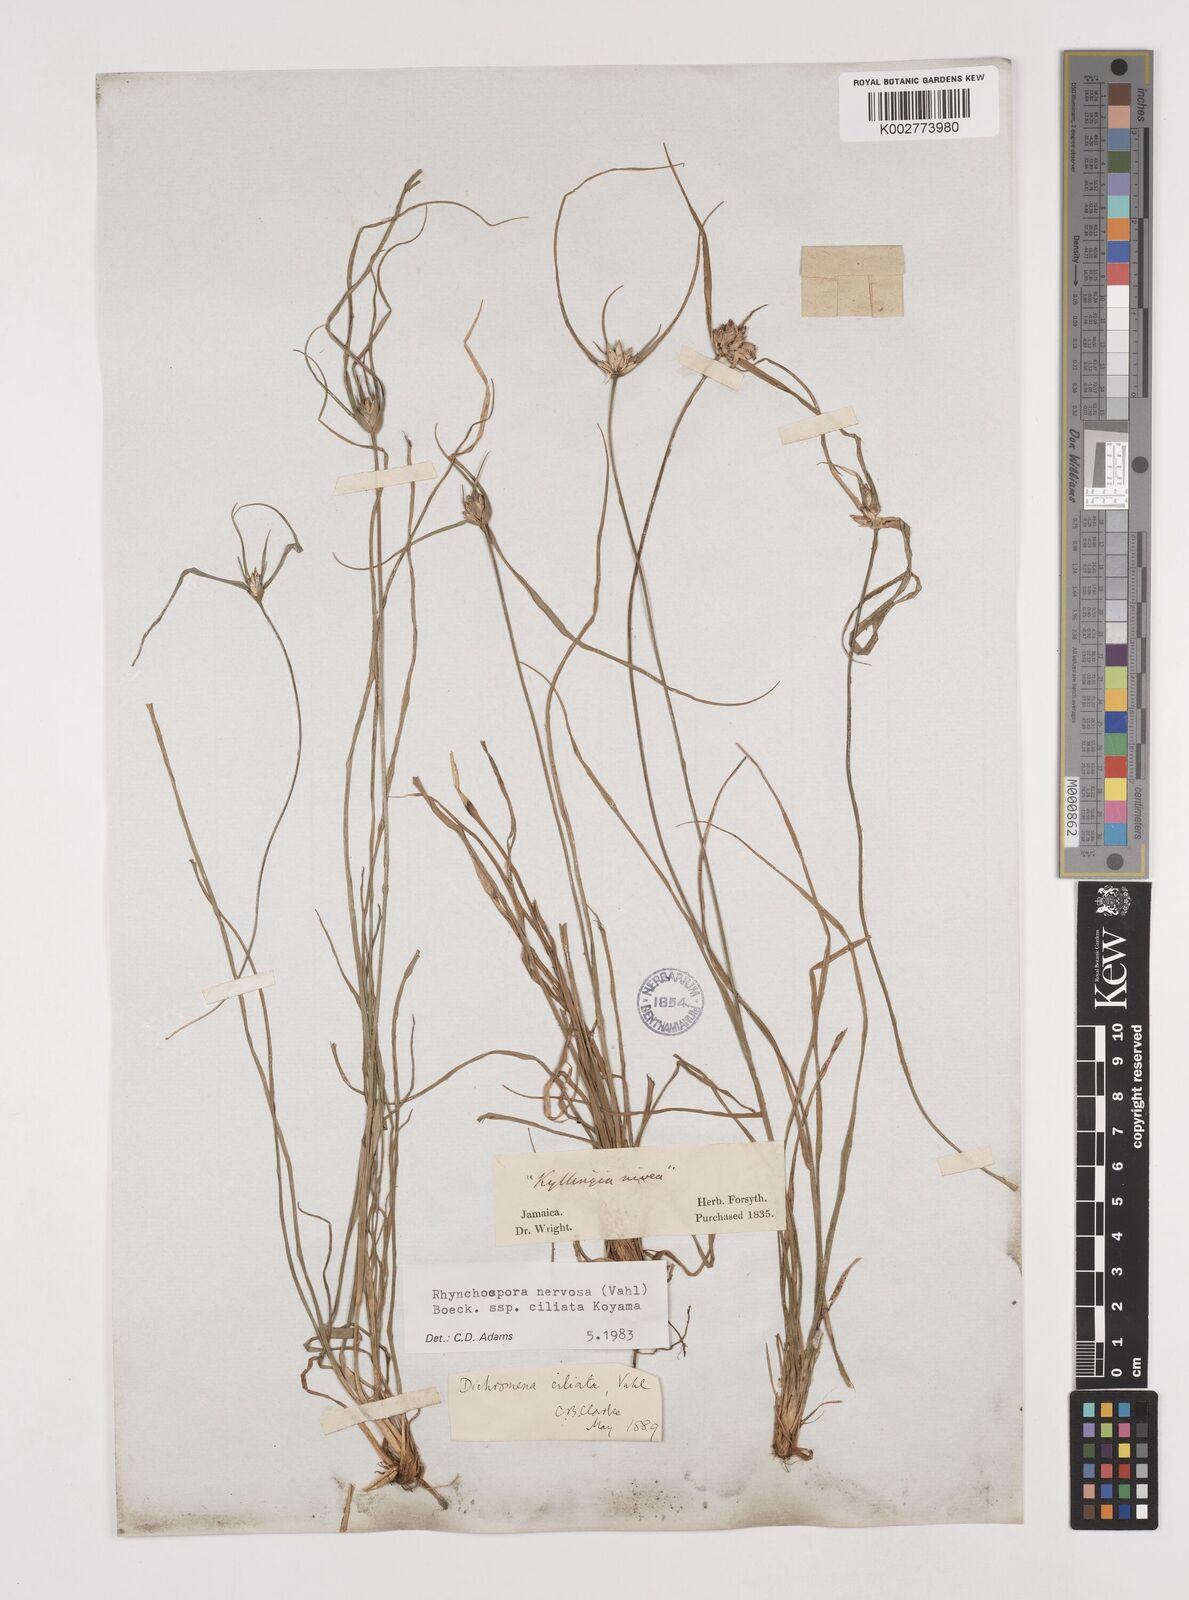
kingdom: Plantae
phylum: Tracheophyta
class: Liliopsida
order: Poales
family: Cyperaceae
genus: Rhynchospora
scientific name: Rhynchospora pura
